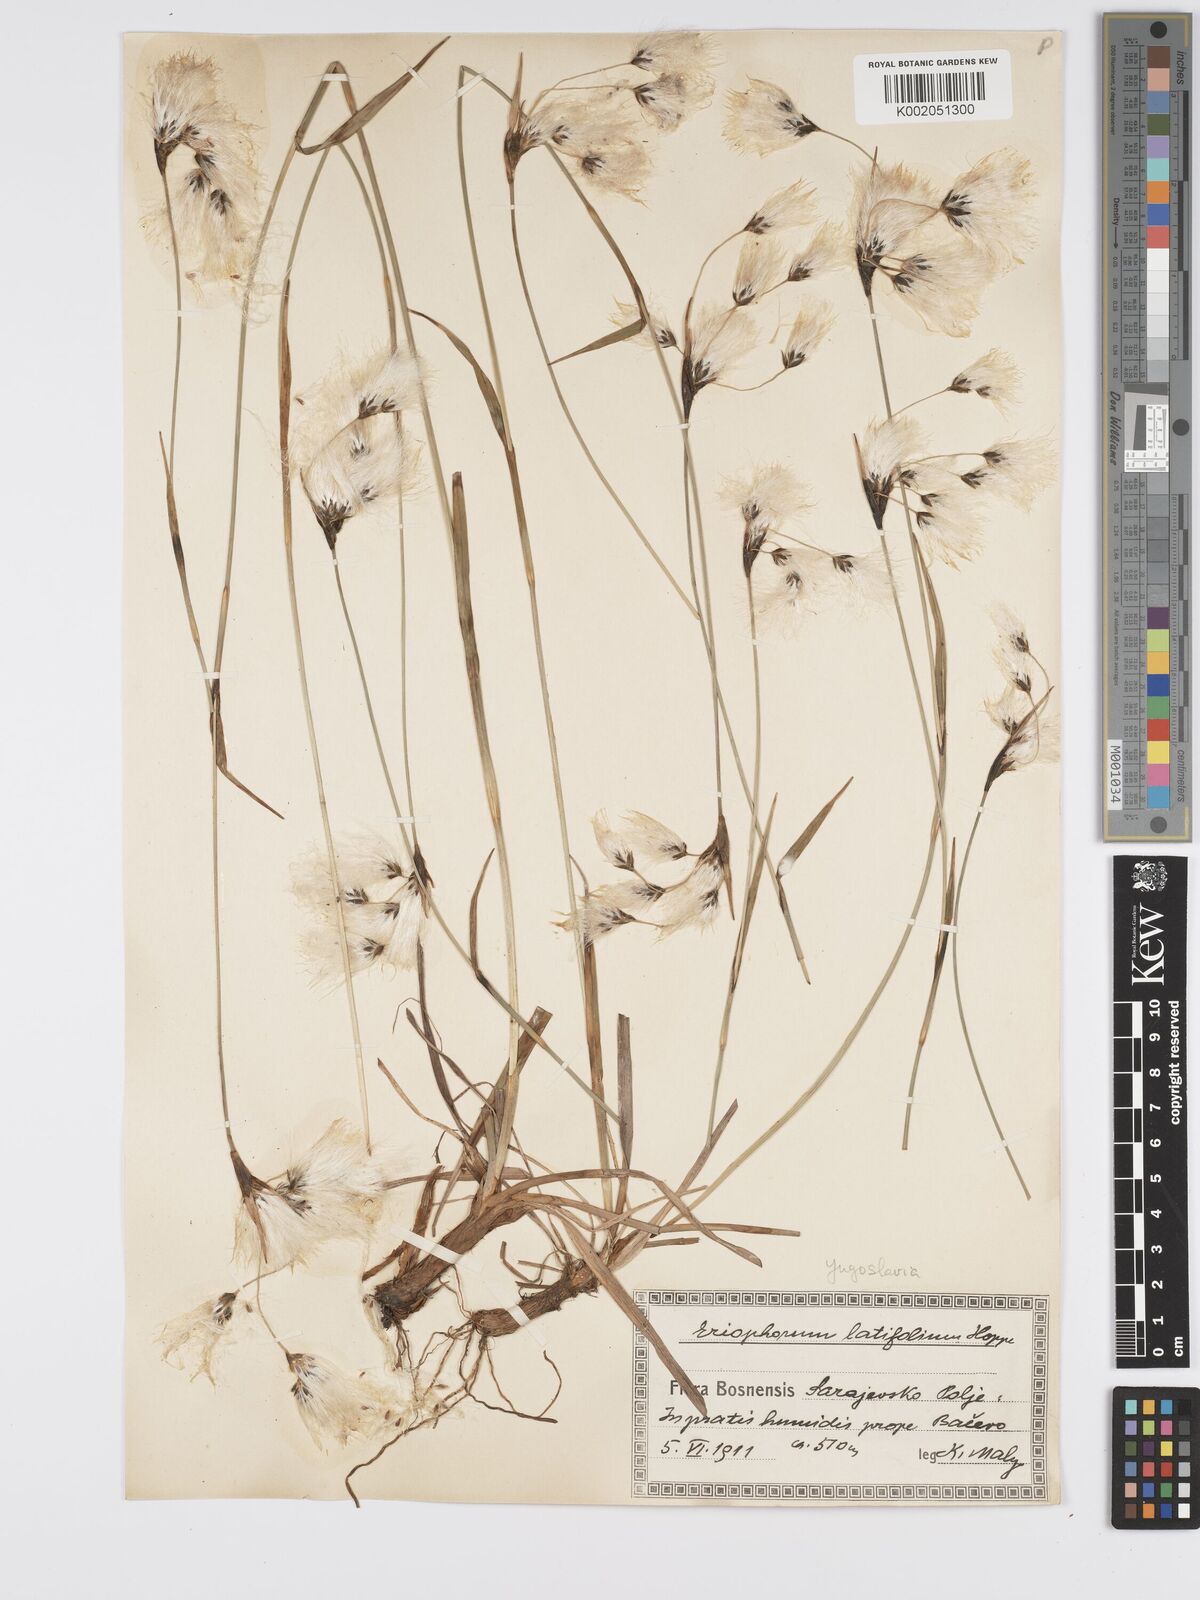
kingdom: Plantae
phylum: Tracheophyta
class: Liliopsida
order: Poales
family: Cyperaceae
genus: Eriophorum
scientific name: Eriophorum latifolium
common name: Broad-leaved cottongrass
